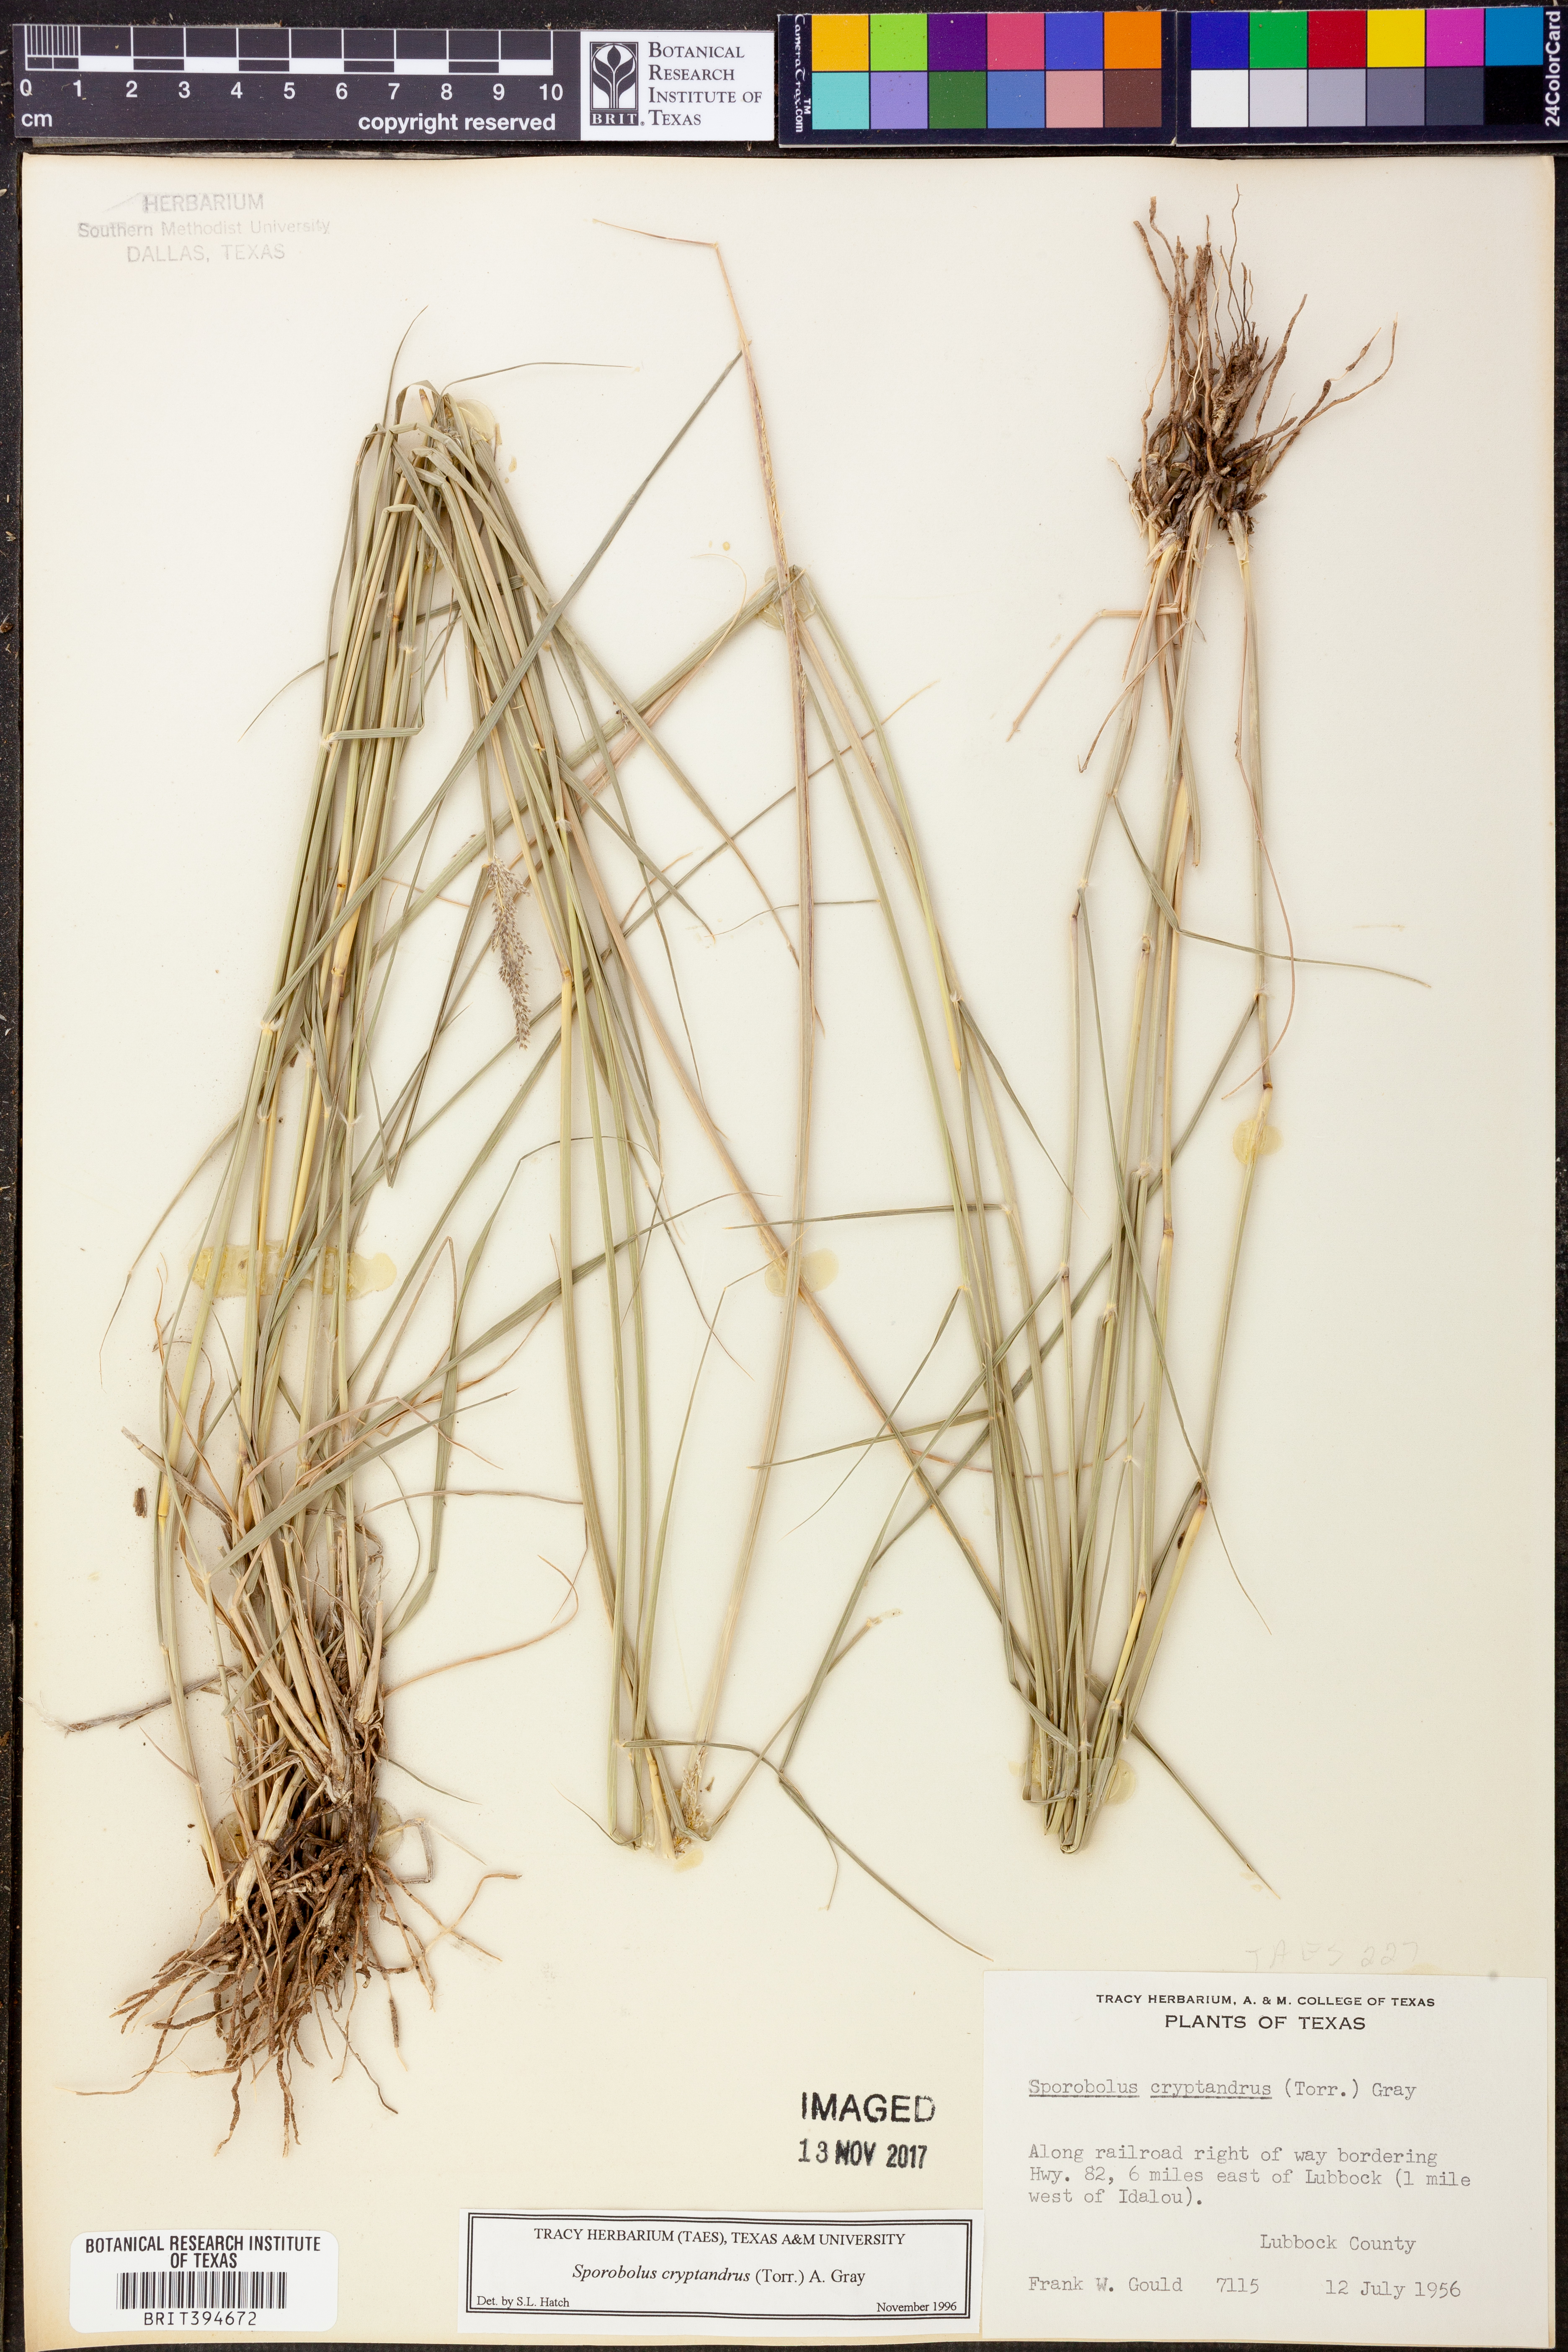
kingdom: Plantae
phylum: Tracheophyta
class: Liliopsida
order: Poales
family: Poaceae
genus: Sporobolus
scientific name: Sporobolus cryptandrus
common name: Sand dropseed
